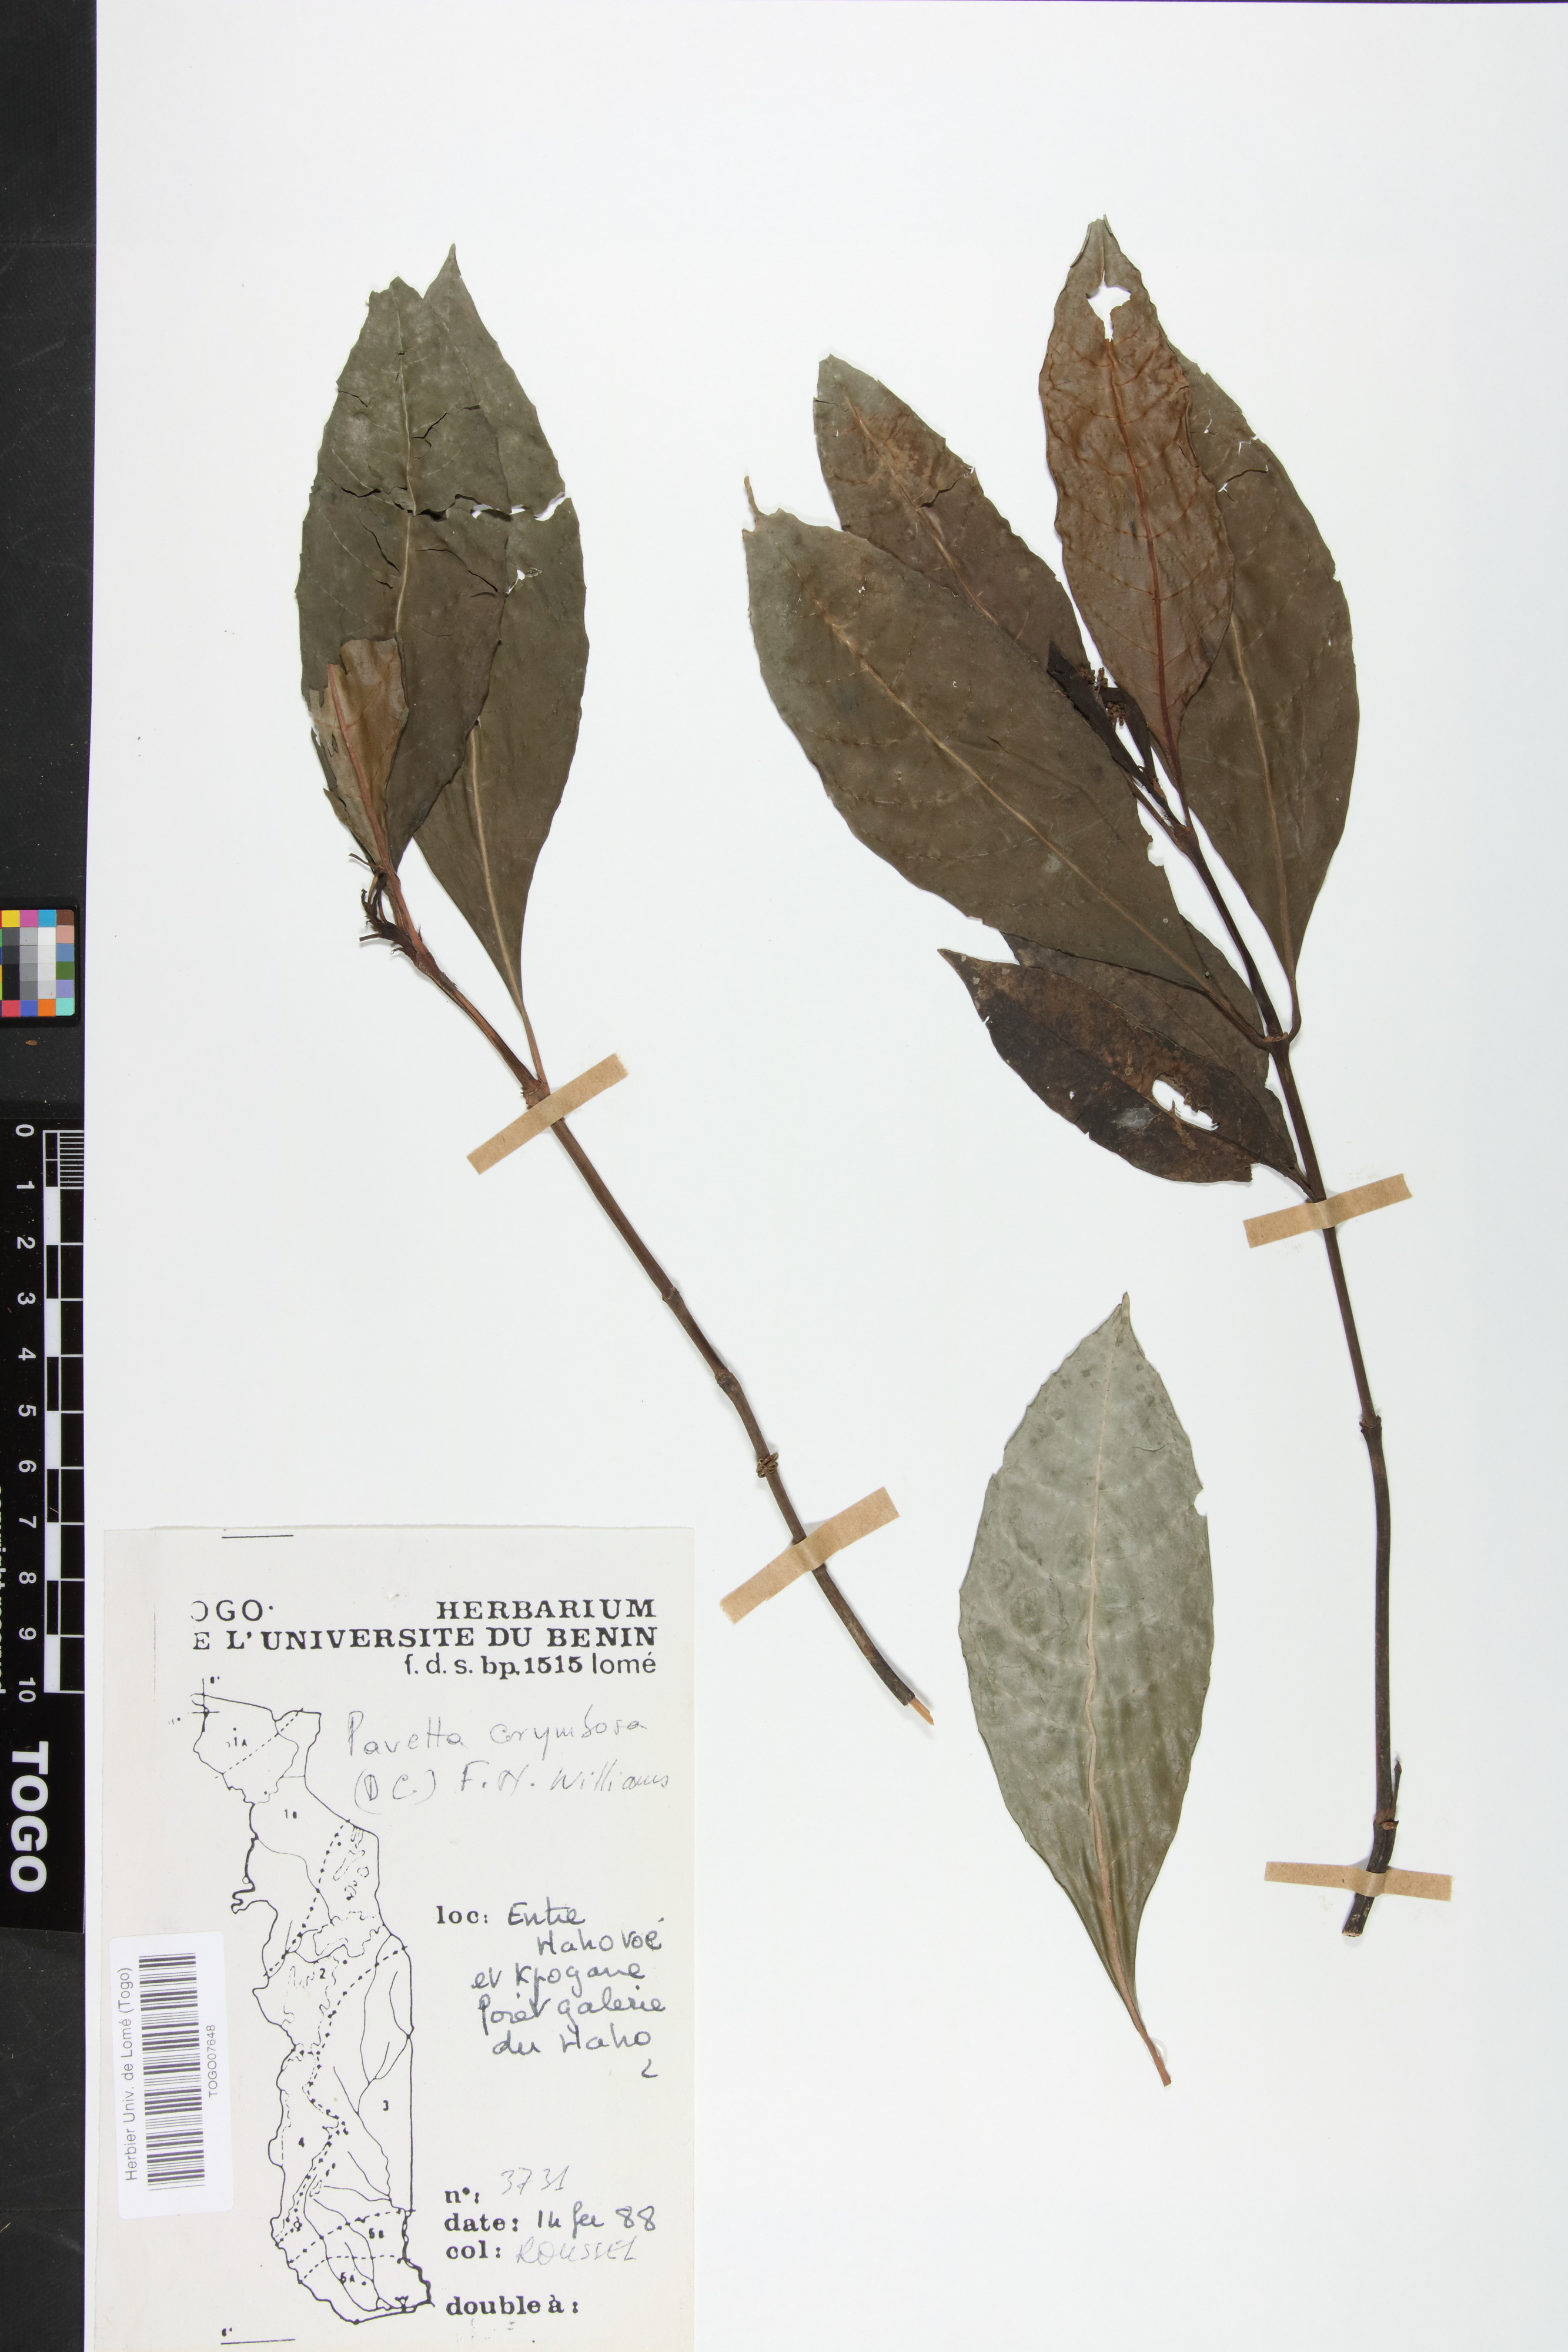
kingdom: Plantae
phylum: Tracheophyta
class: Magnoliopsida
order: Gentianales
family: Rubiaceae
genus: Pavetta
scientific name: Pavetta corymbosa
